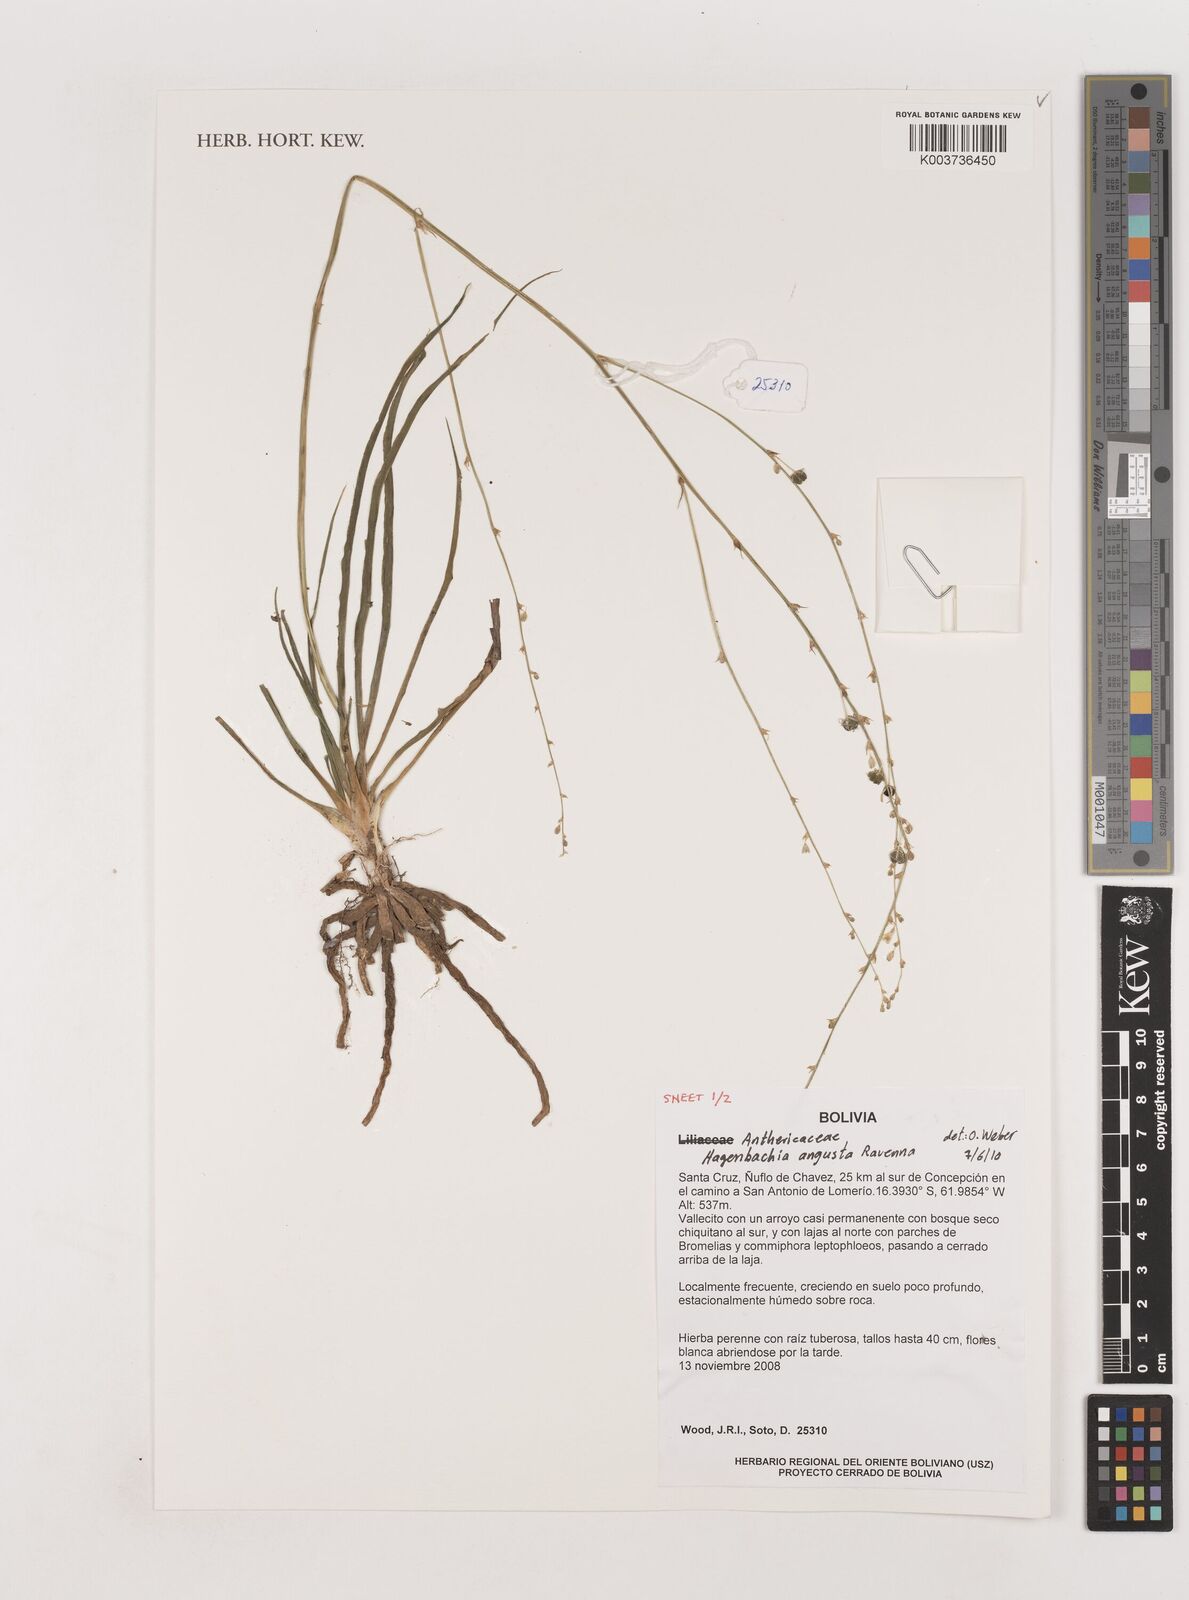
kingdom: Plantae
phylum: Tracheophyta
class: Liliopsida
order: Asparagales
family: Asparagaceae
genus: Hagenbachia
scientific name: Hagenbachia matogrossensis
